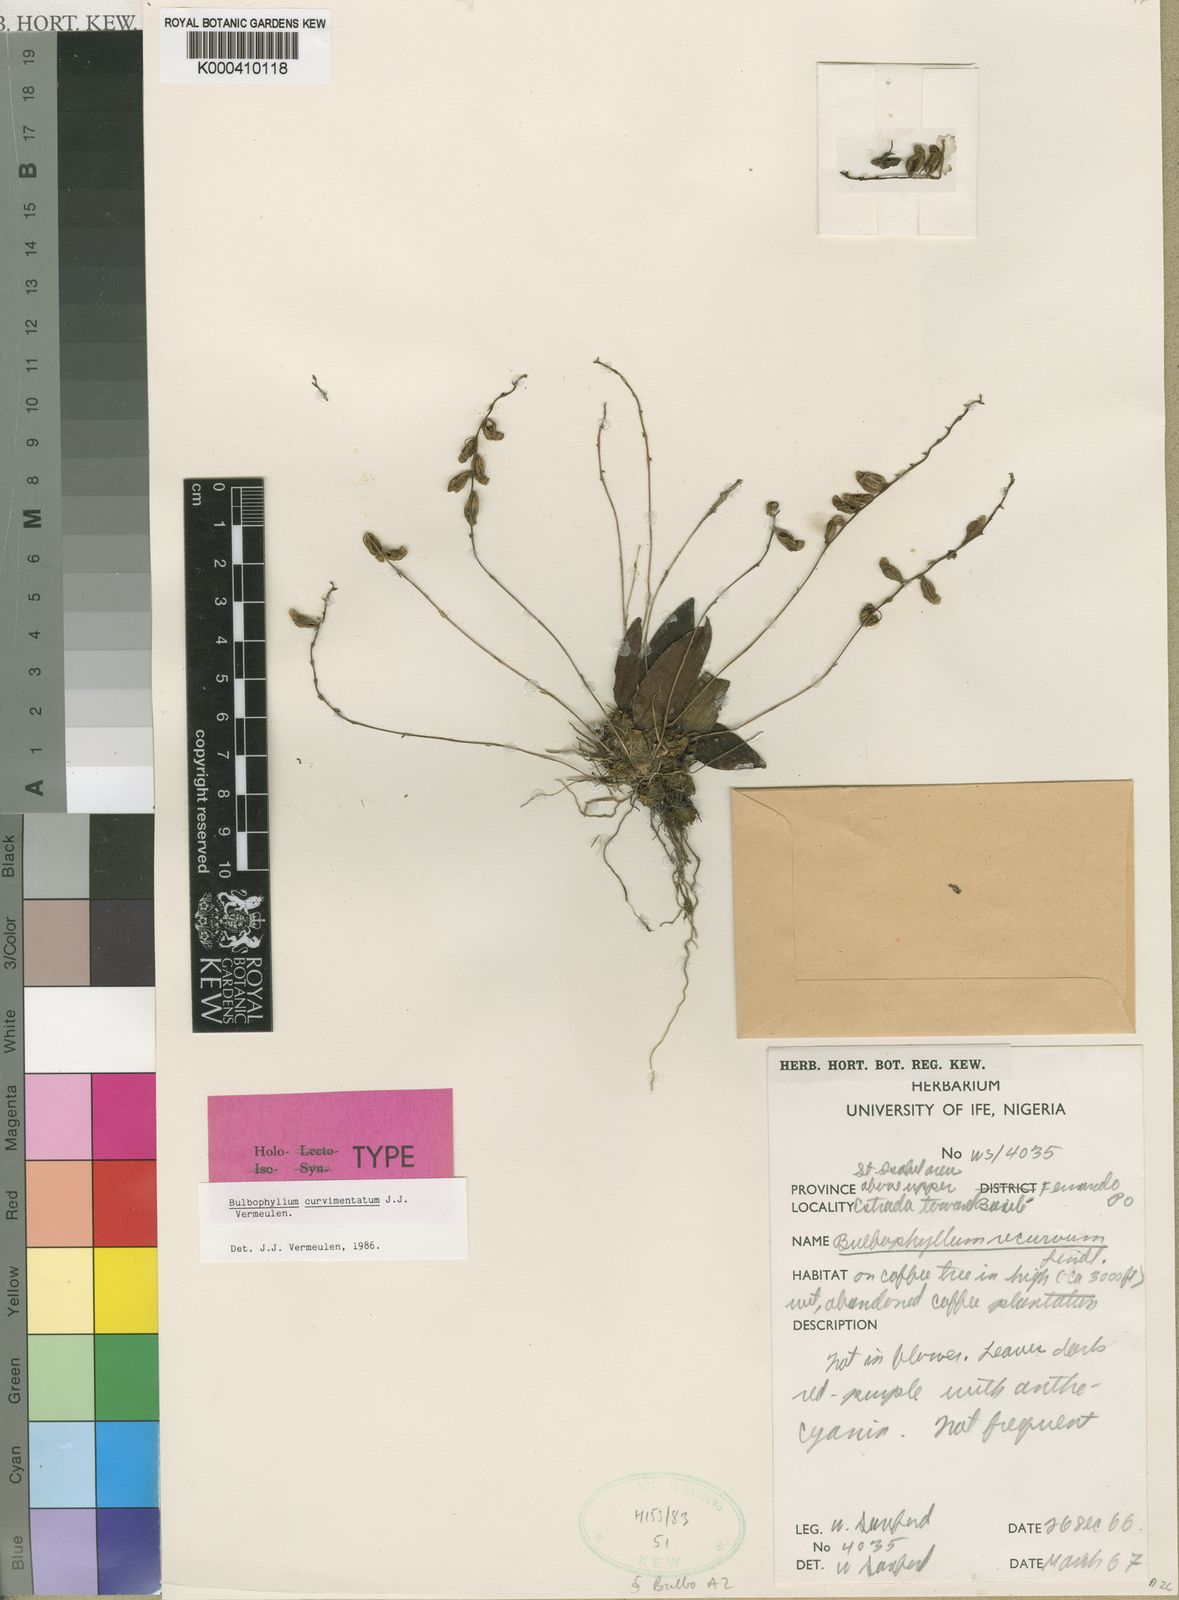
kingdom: Plantae
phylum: Tracheophyta
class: Liliopsida
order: Asparagales
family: Orchidaceae
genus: Bulbophyllum
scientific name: Bulbophyllum curvimentatum
